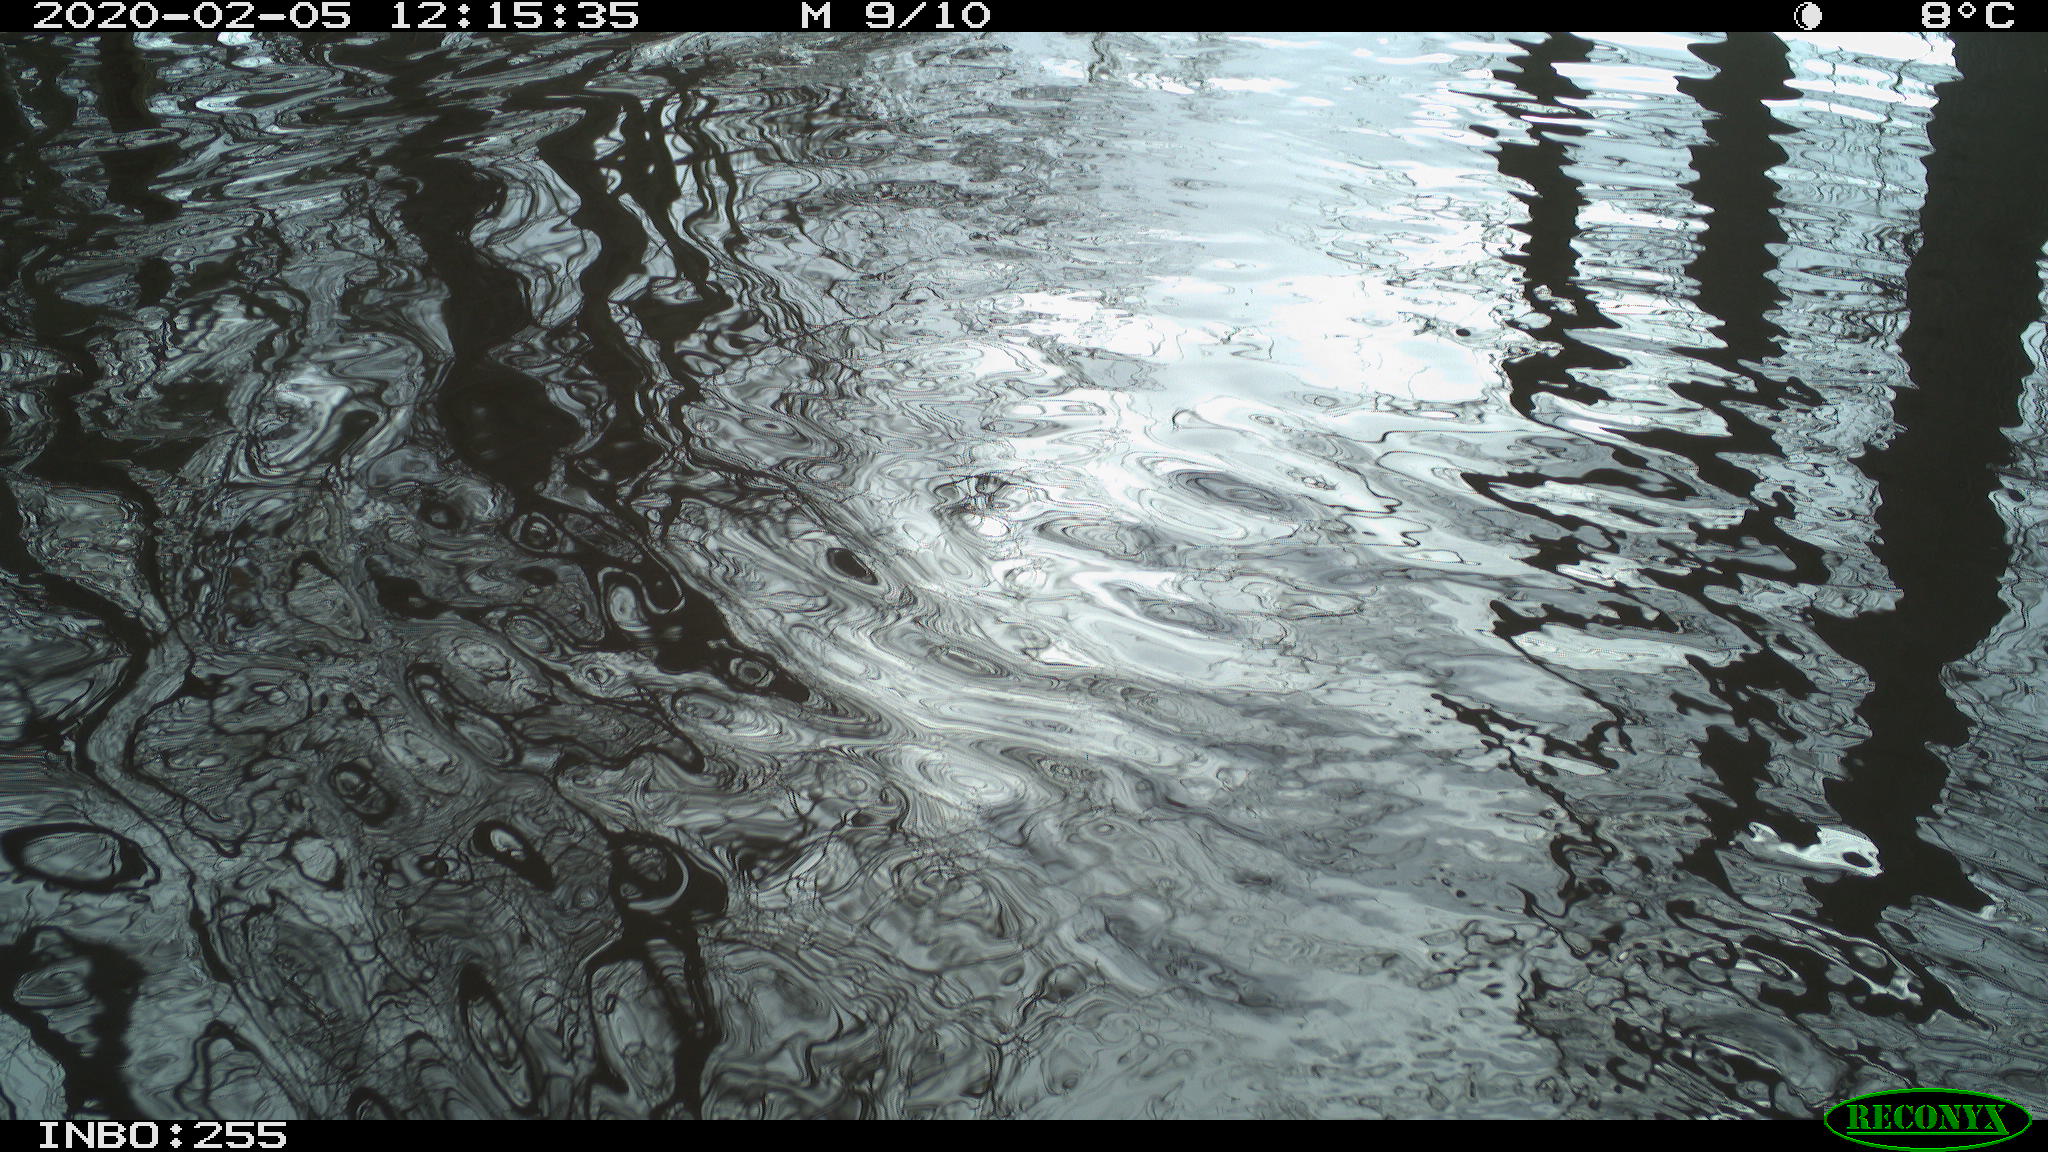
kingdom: Animalia
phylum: Chordata
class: Aves
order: Gruiformes
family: Rallidae
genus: Fulica
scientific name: Fulica atra
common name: Eurasian coot
